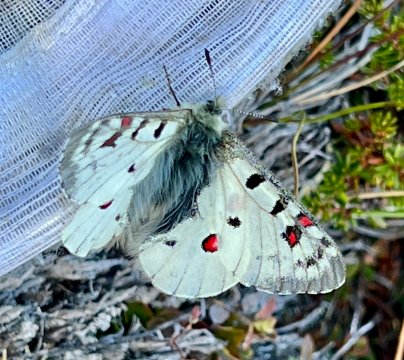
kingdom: Animalia
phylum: Arthropoda
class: Insecta
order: Lepidoptera
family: Papilionidae
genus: Parnassius
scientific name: Parnassius phoebus
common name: Phoebus Parnassian
